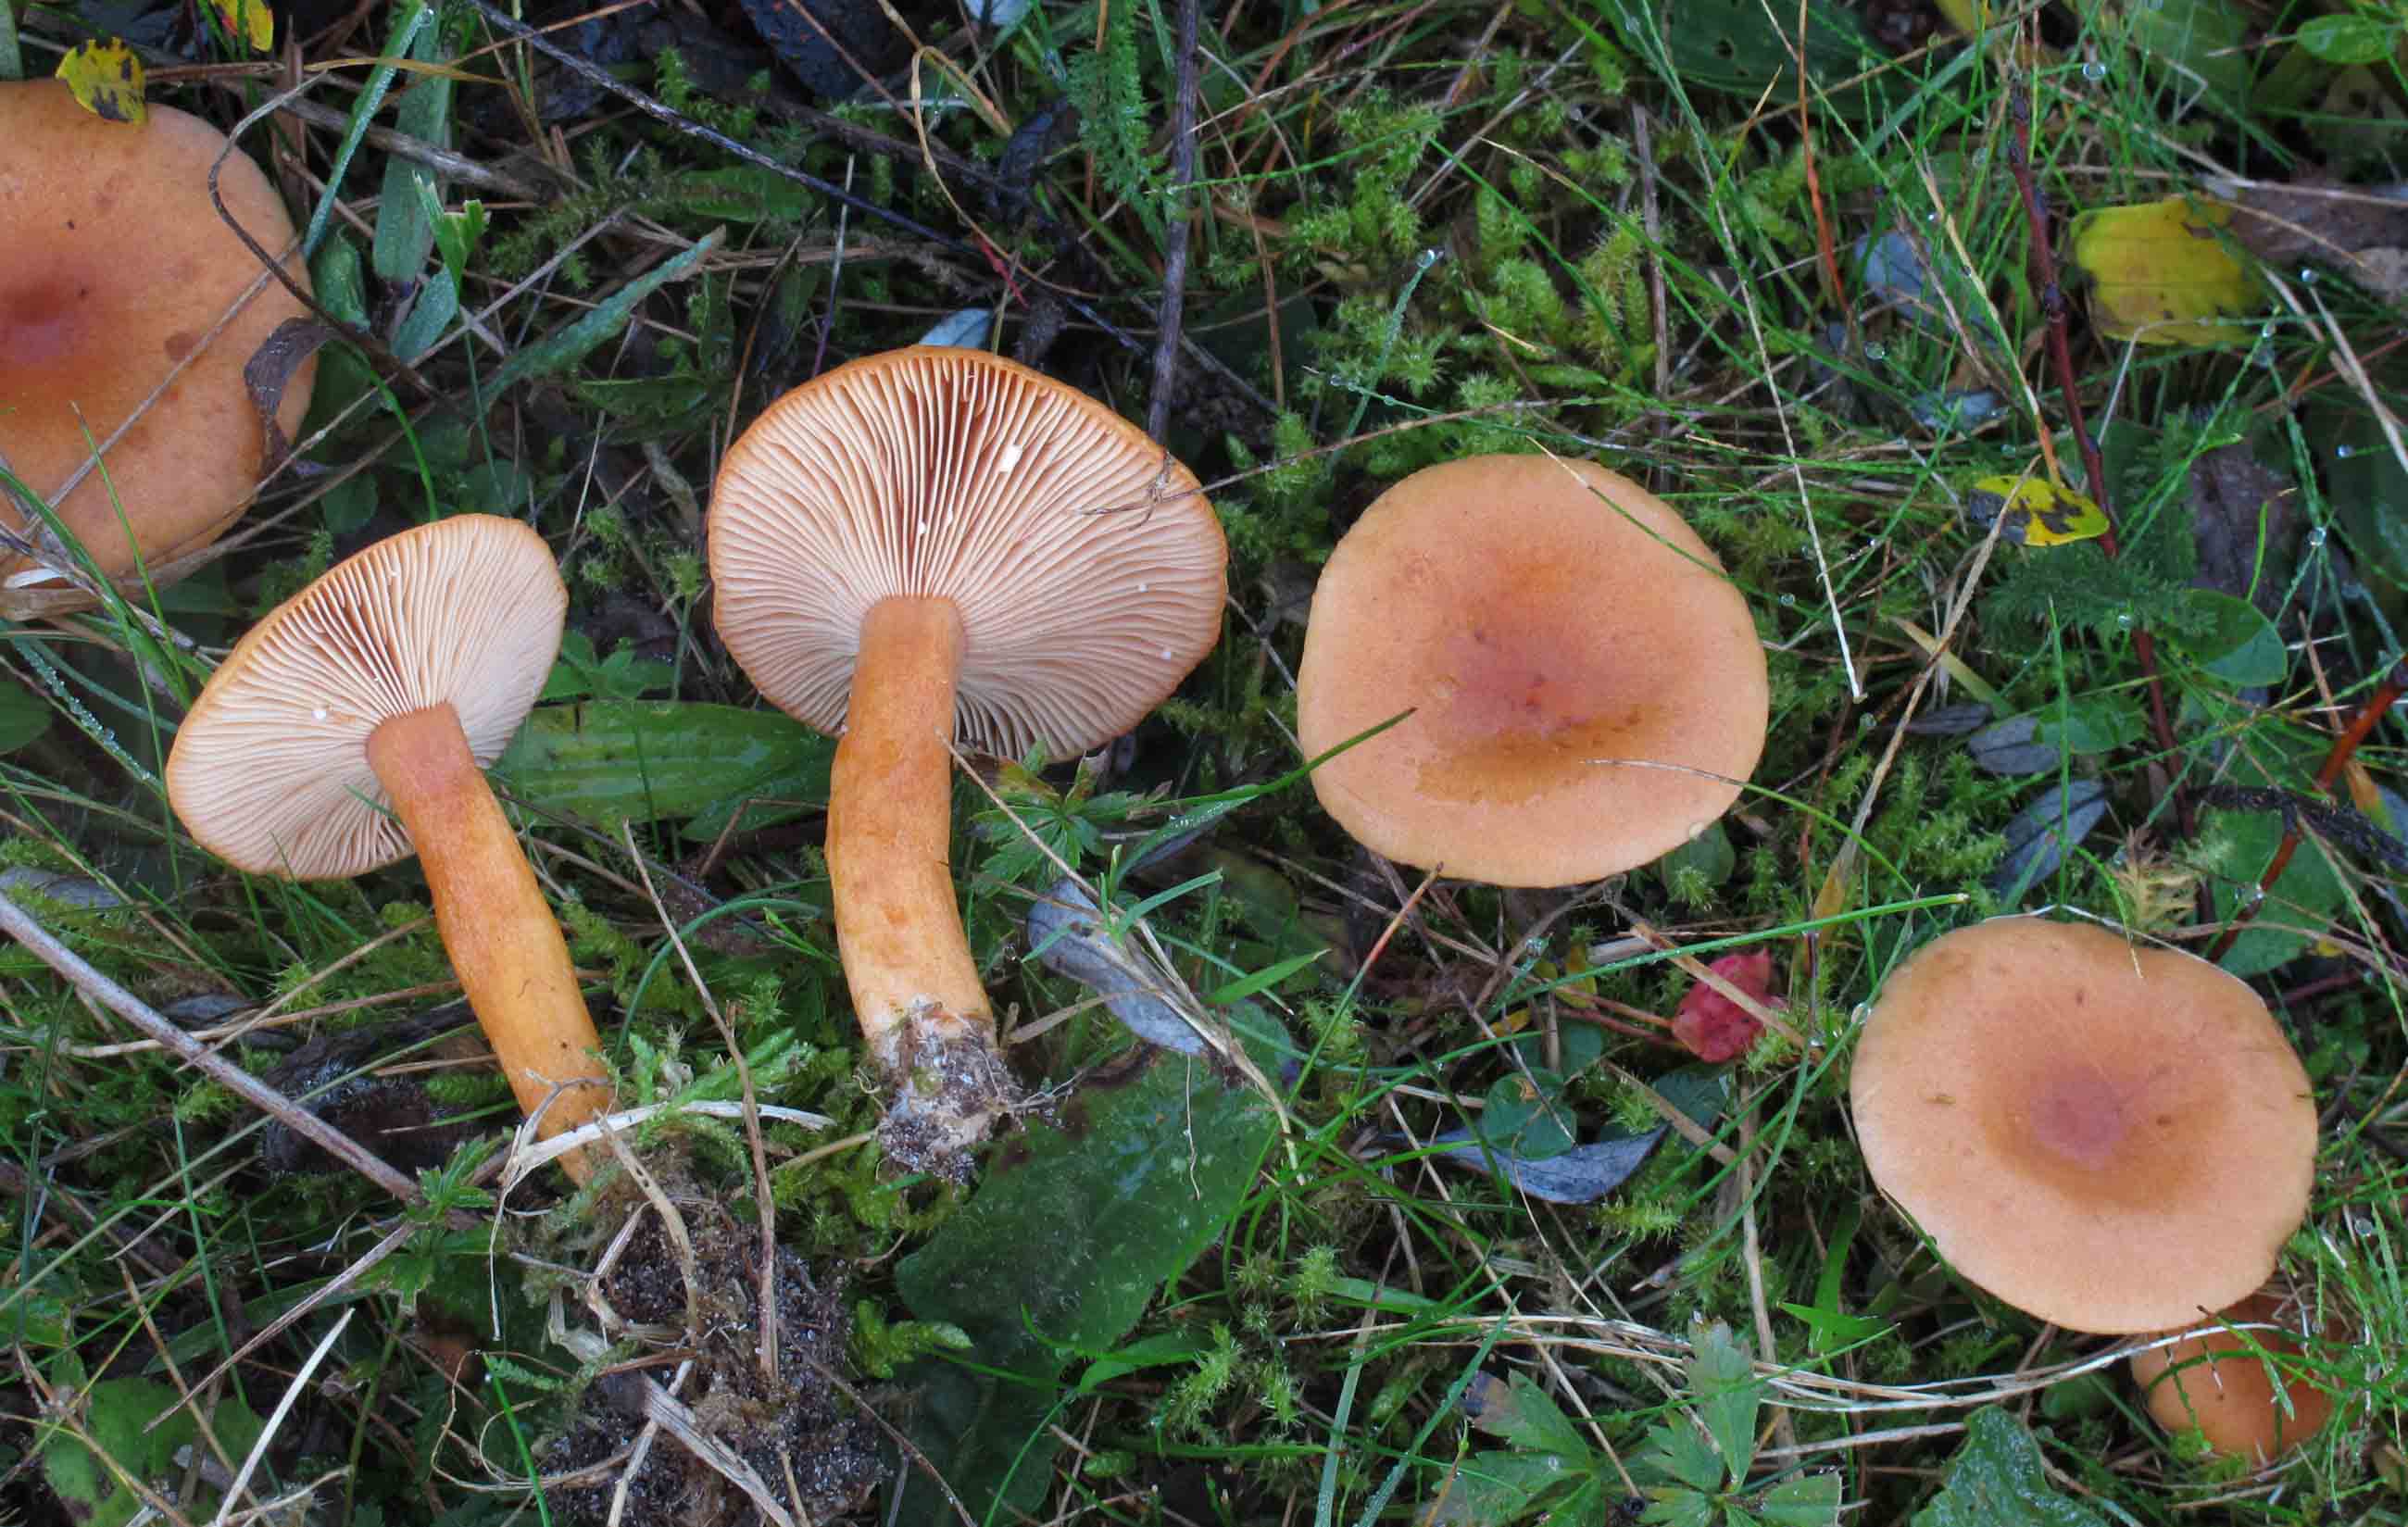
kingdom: Fungi
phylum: Basidiomycota
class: Agaricomycetes
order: Russulales
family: Russulaceae
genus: Lactarius
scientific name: Lactarius aurantiacus
